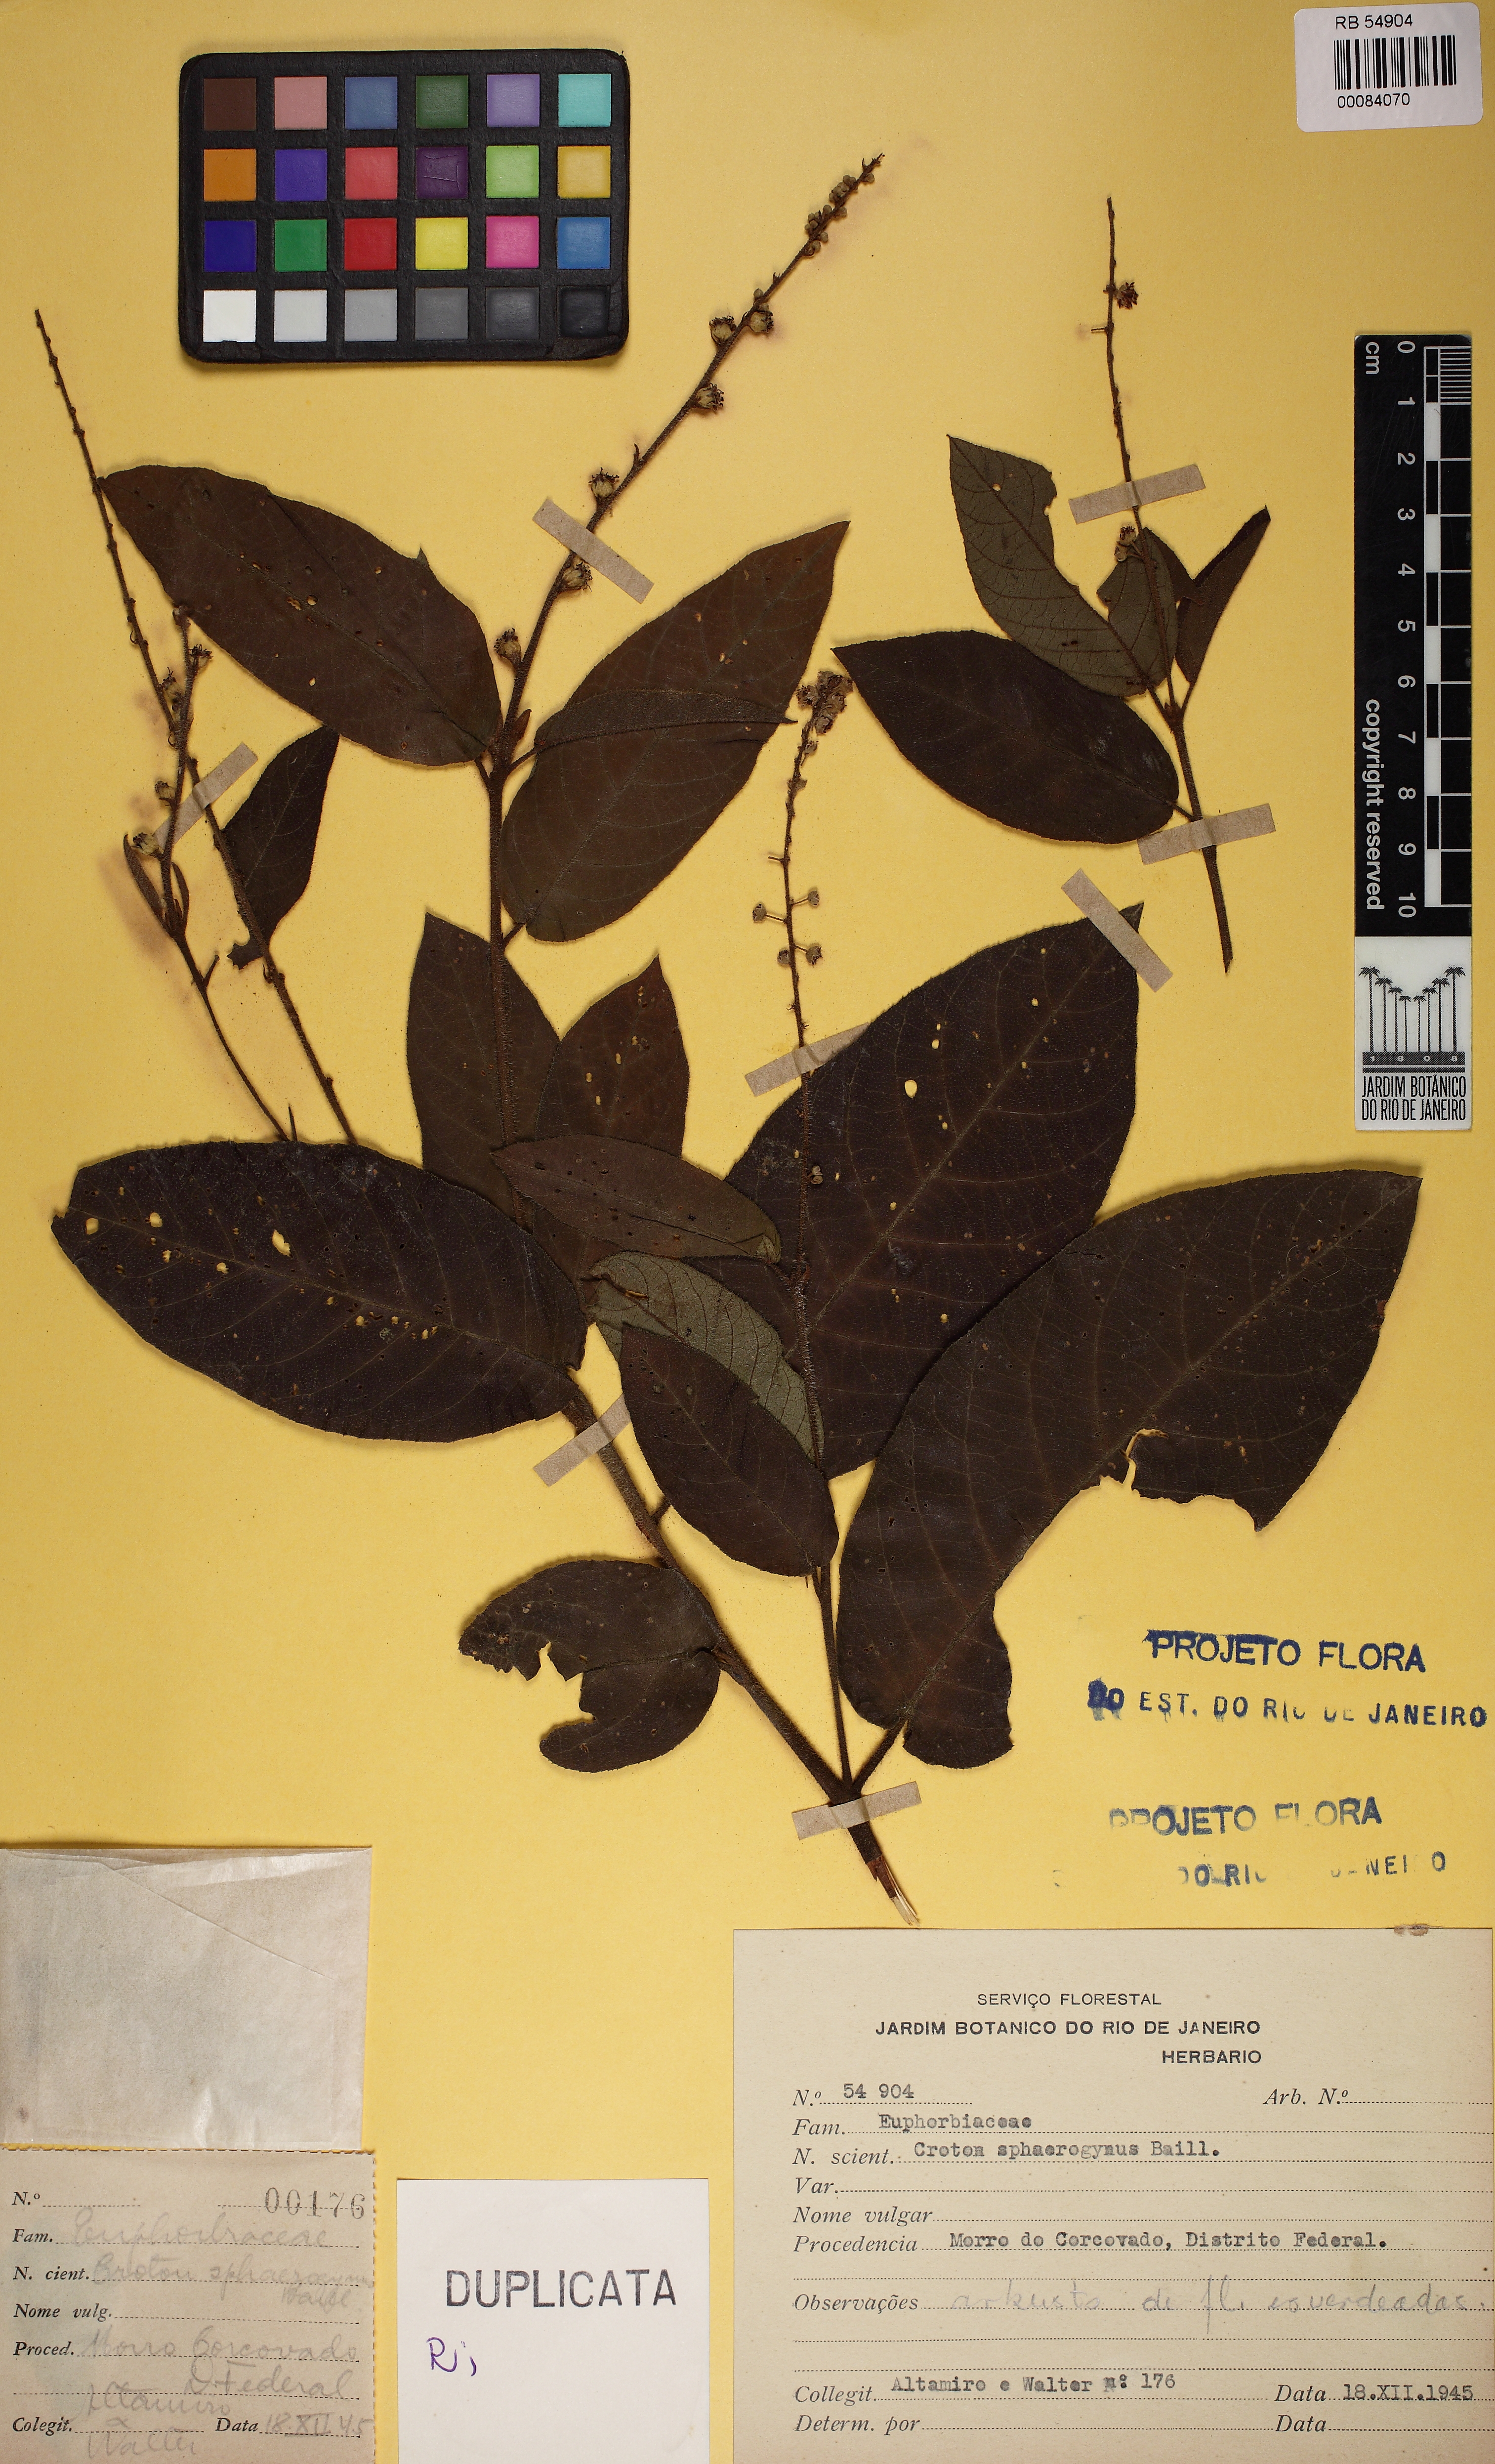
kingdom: Plantae
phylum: Tracheophyta
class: Magnoliopsida
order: Malpighiales
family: Euphorbiaceae
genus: Croton
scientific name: Croton sphaerogynus
